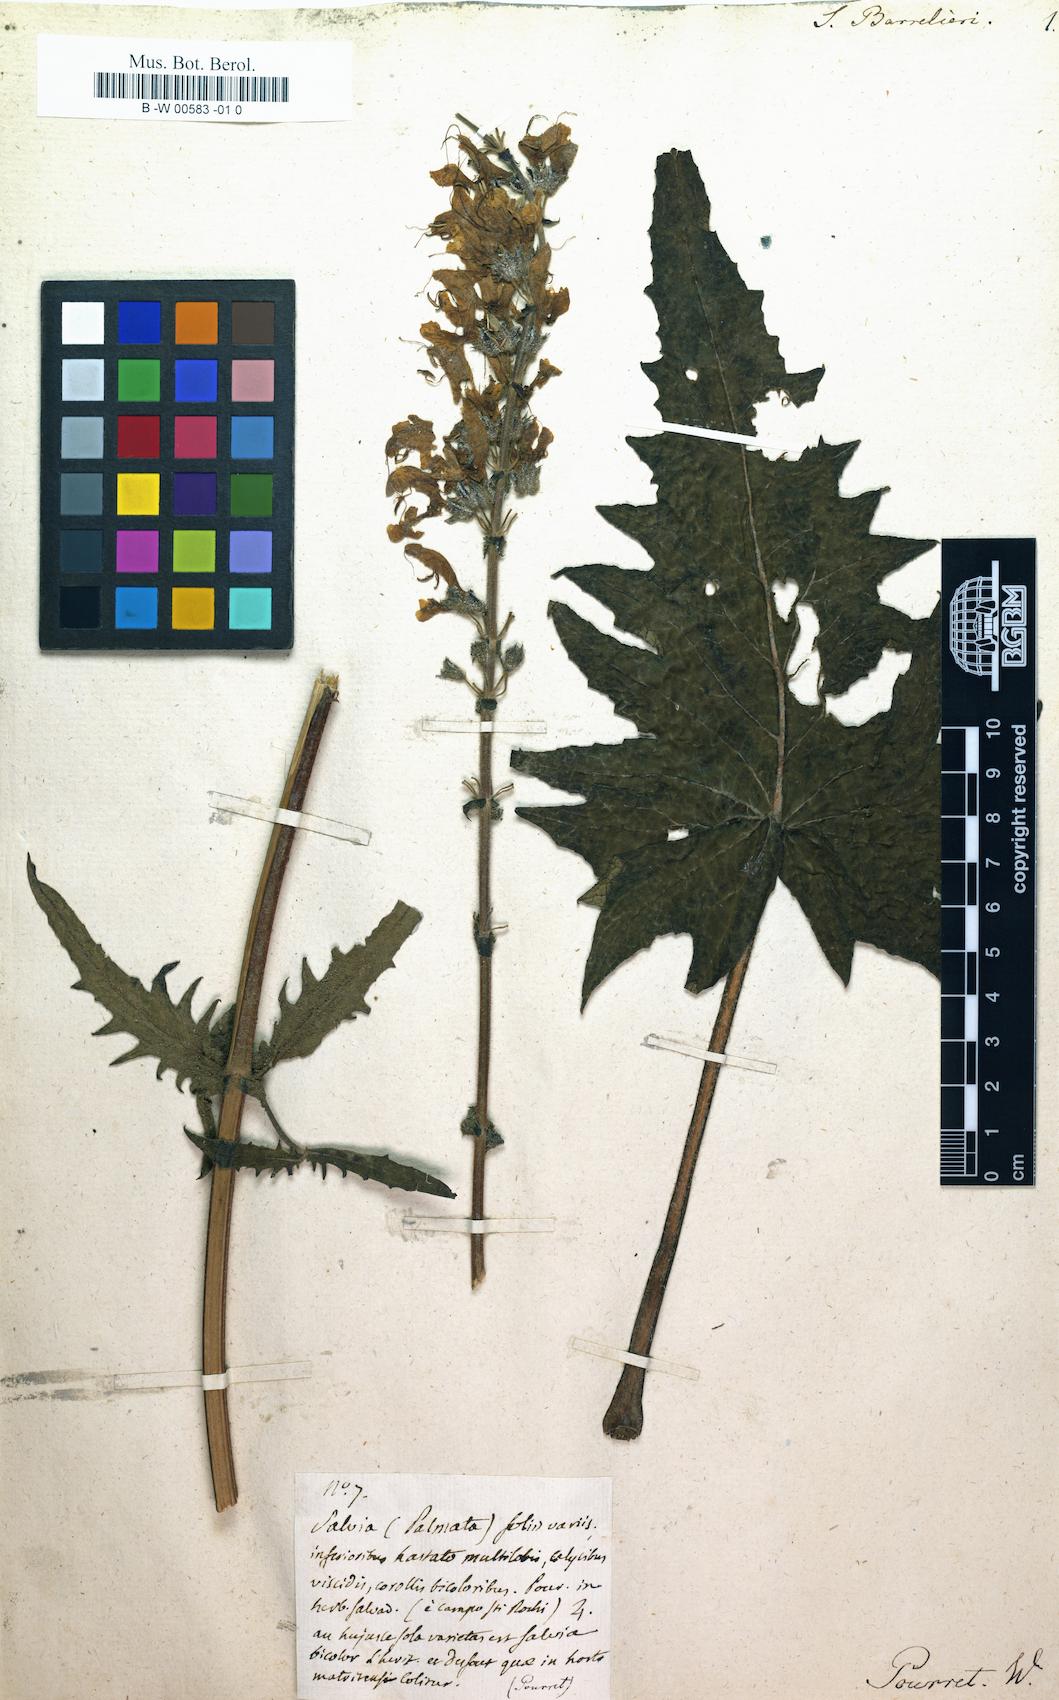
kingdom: Plantae
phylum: Tracheophyta
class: Magnoliopsida
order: Lamiales
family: Lamiaceae
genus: Salvia
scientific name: Salvia barrelieri
